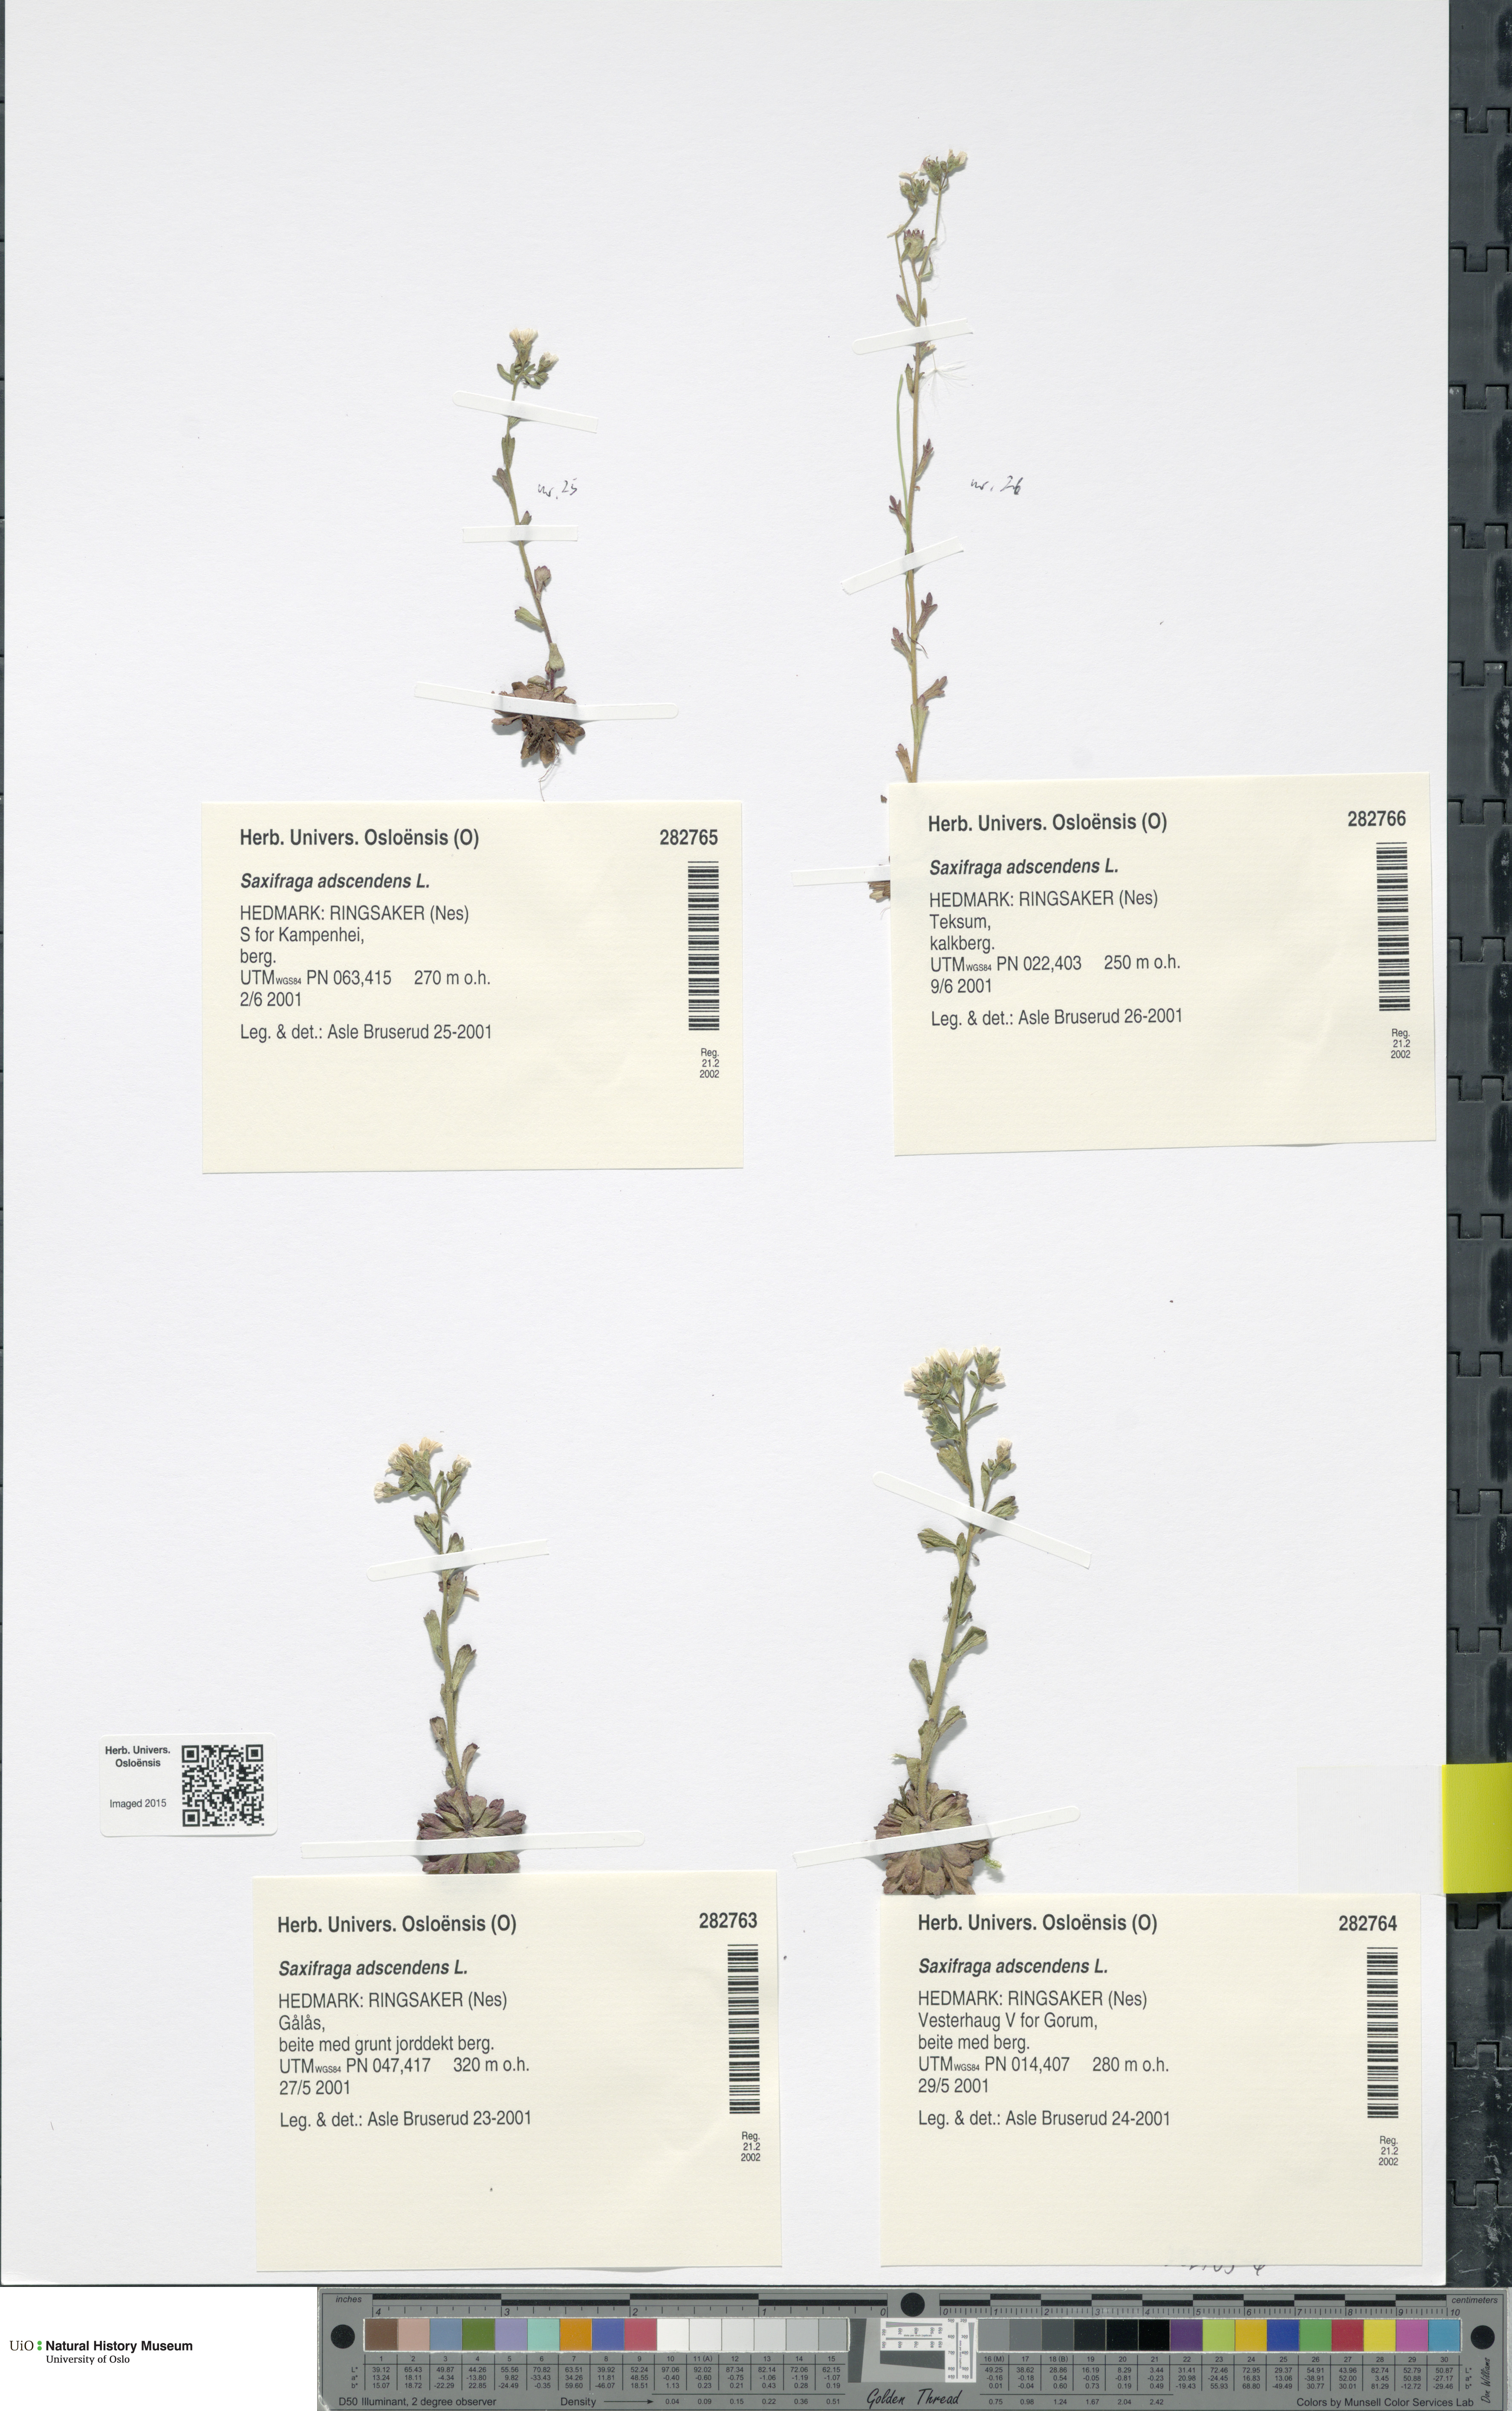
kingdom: Plantae
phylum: Tracheophyta
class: Magnoliopsida
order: Saxifragales
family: Saxifragaceae
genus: Saxifraga
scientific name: Saxifraga adscendens
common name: Ascending saxifrage
